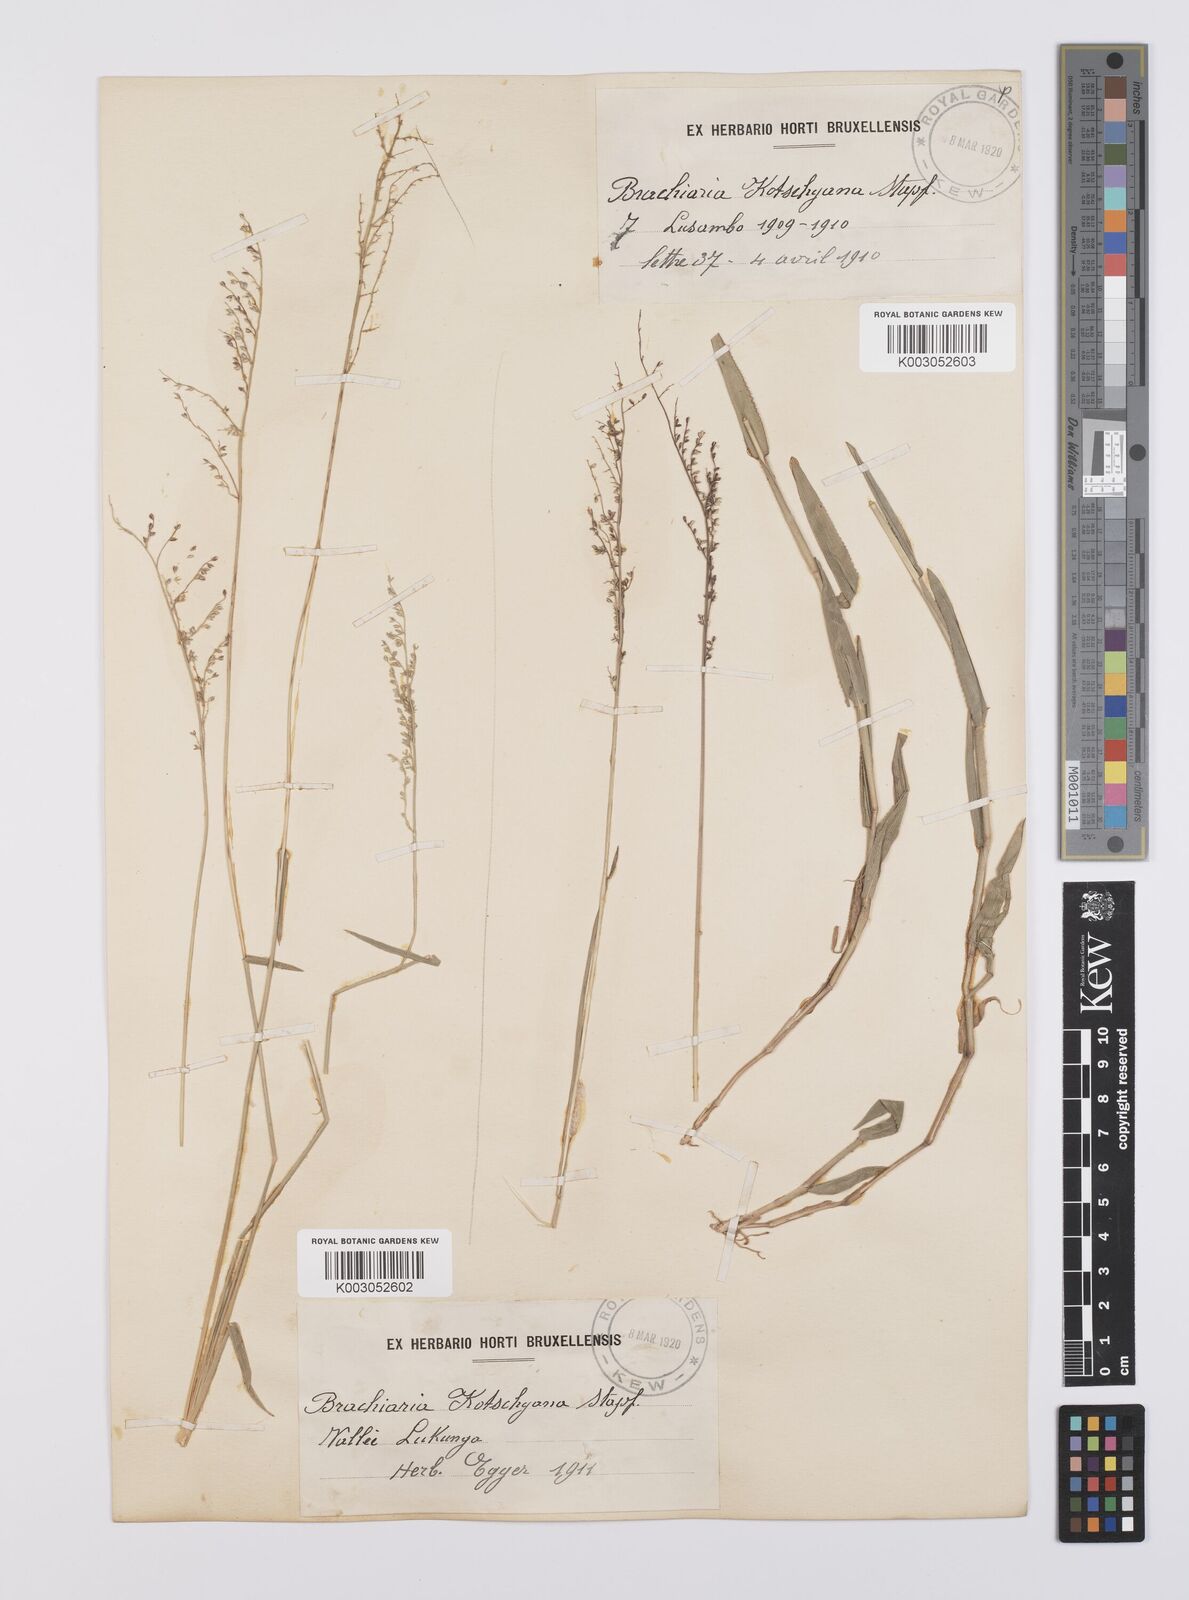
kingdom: Plantae
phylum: Tracheophyta
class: Liliopsida
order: Poales
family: Poaceae
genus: Urochloa
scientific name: Urochloa comata
